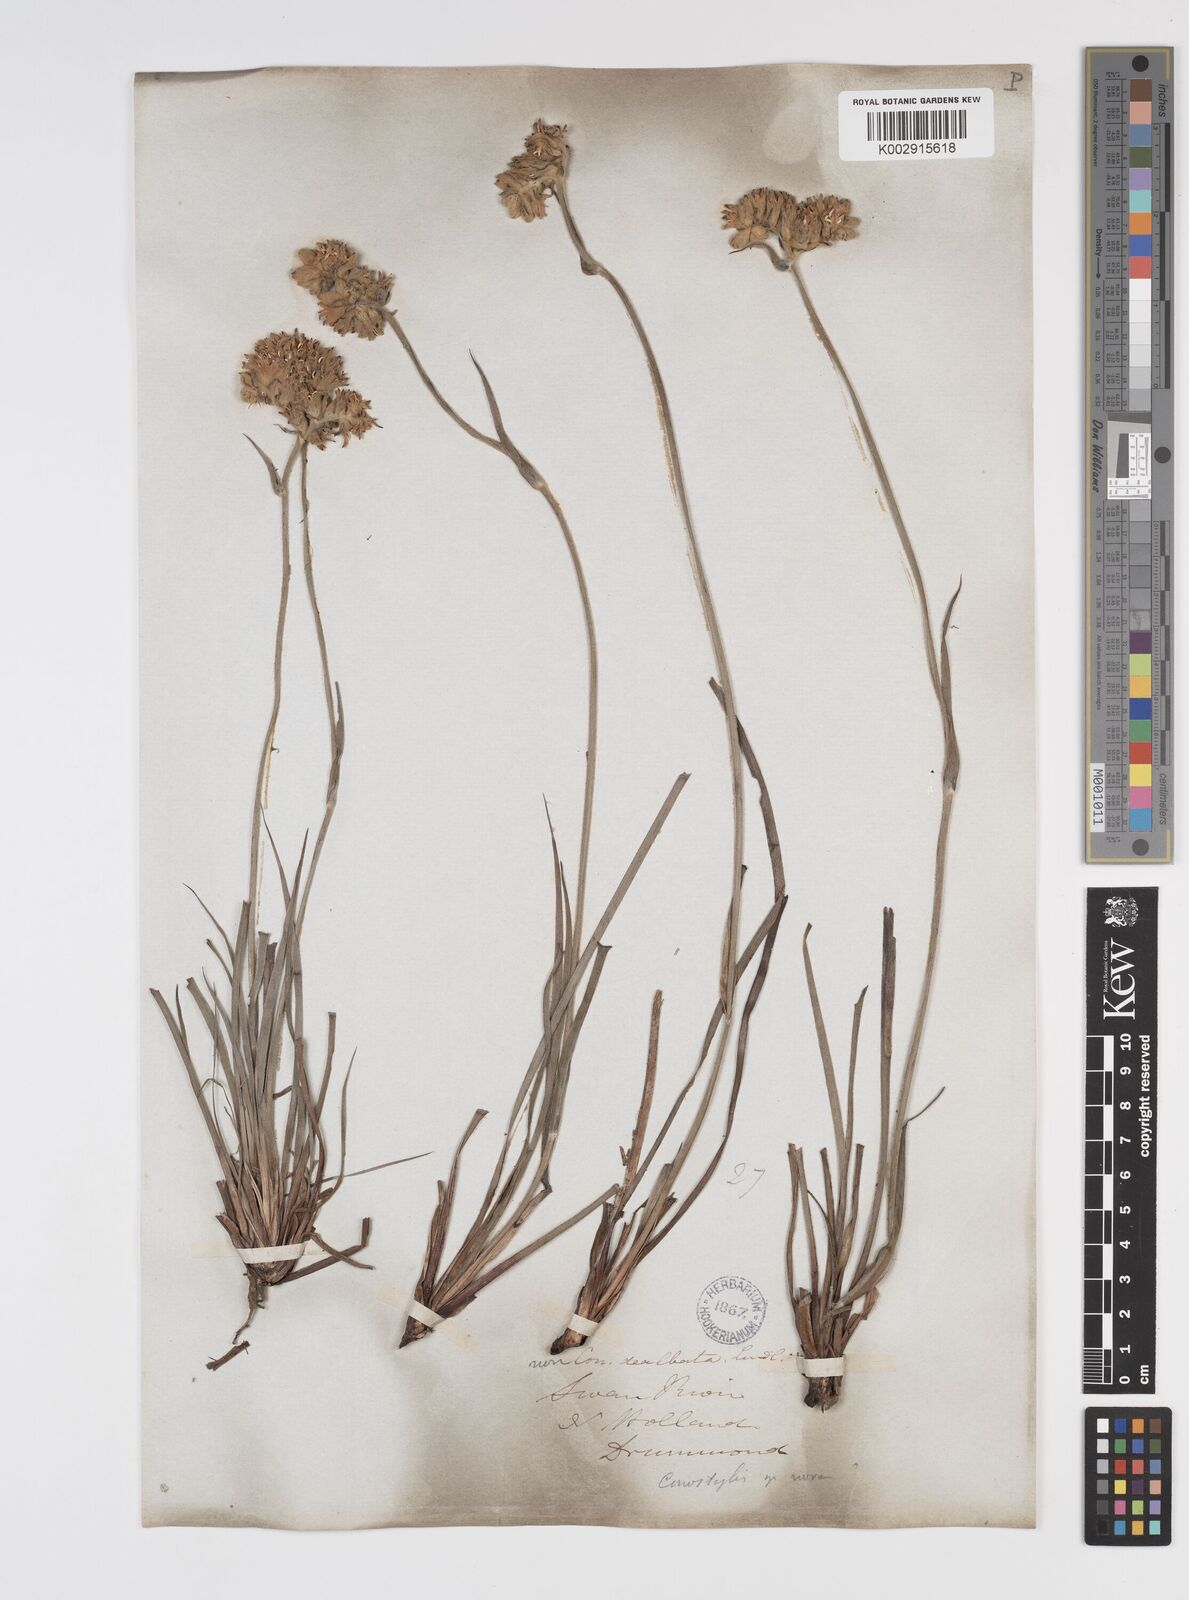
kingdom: Plantae
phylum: Tracheophyta
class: Liliopsida
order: Commelinales
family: Haemodoraceae
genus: Conostylis
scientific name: Conostylis candicans
